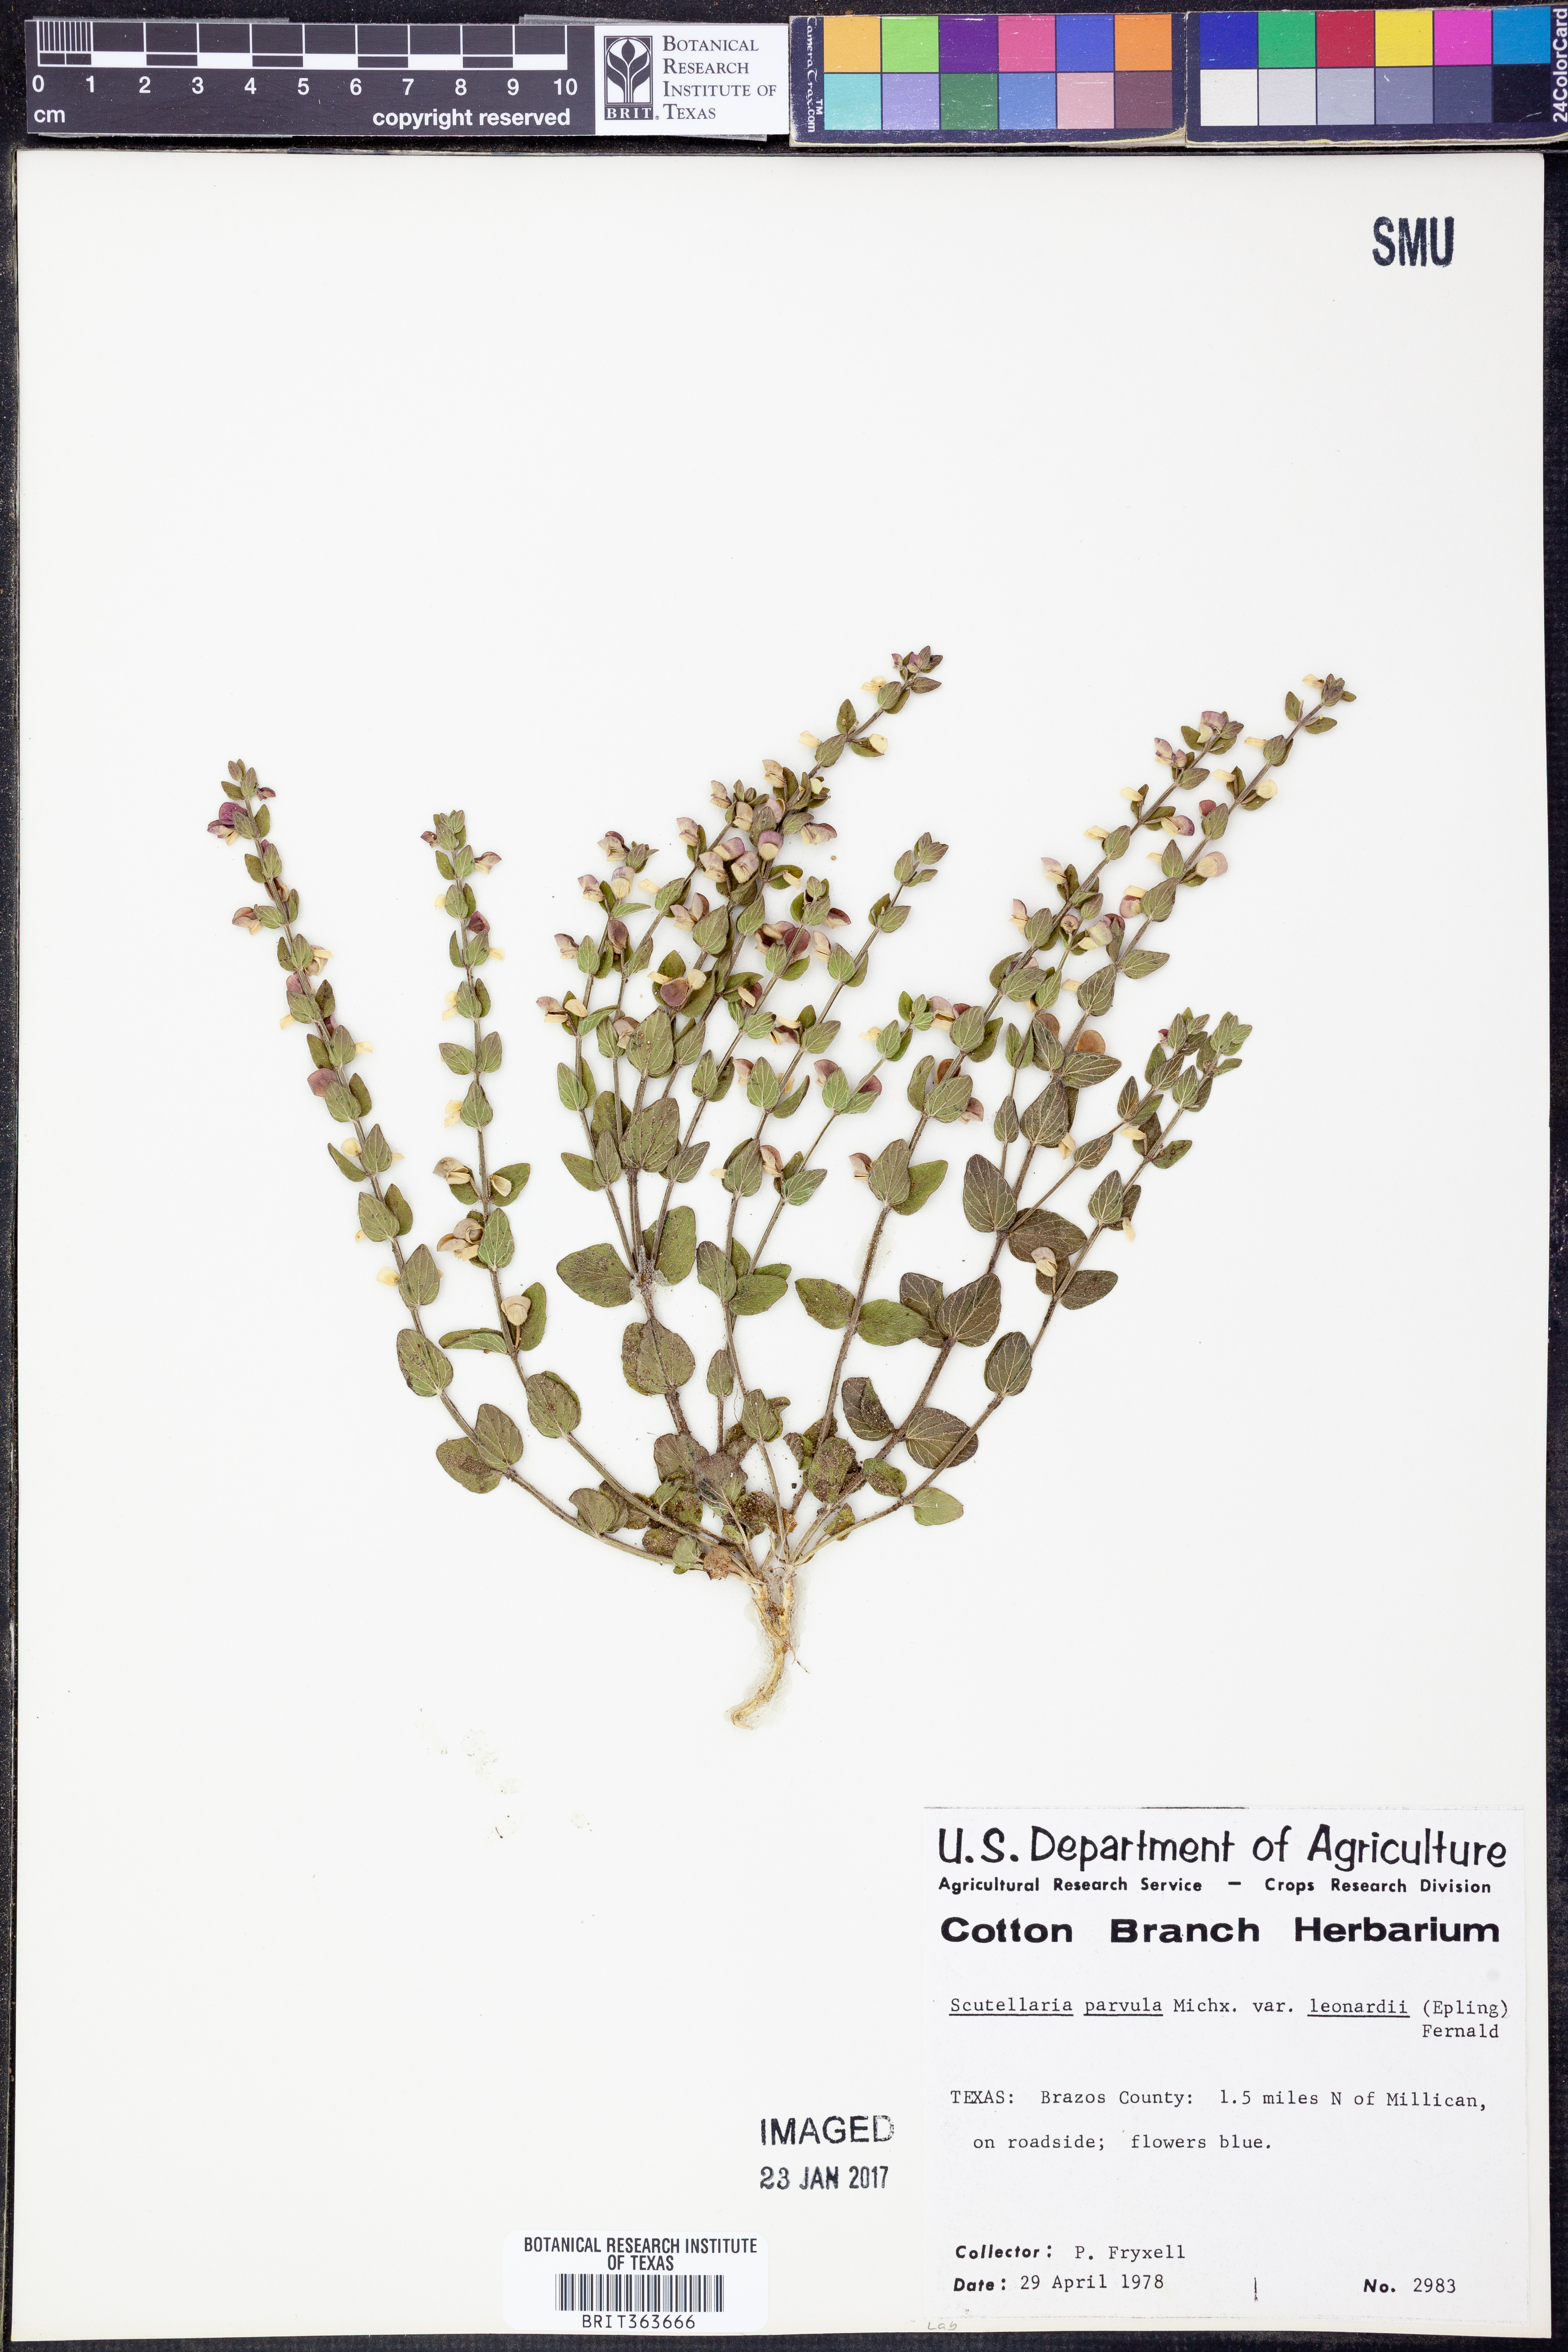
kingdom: Plantae
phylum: Tracheophyta
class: Magnoliopsida
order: Lamiales
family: Lamiaceae
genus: Scutellaria
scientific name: Scutellaria parvula
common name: Little scullcap
